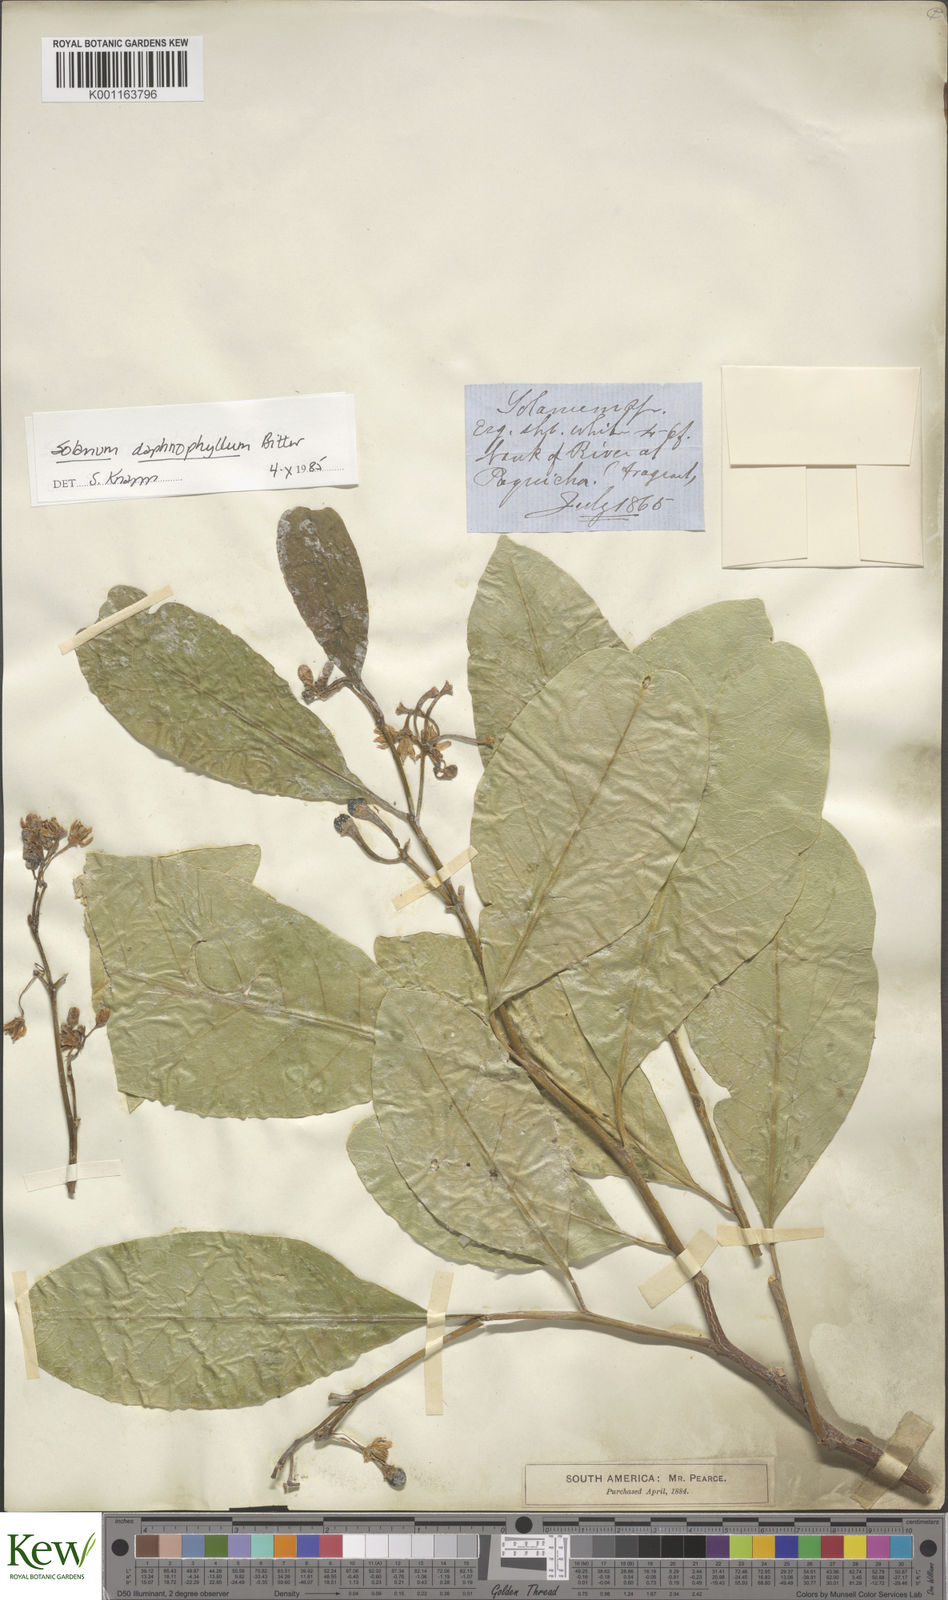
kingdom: Plantae
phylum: Tracheophyta
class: Magnoliopsida
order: Solanales
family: Solanaceae
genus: Solanum
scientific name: Solanum daphnophyllum
